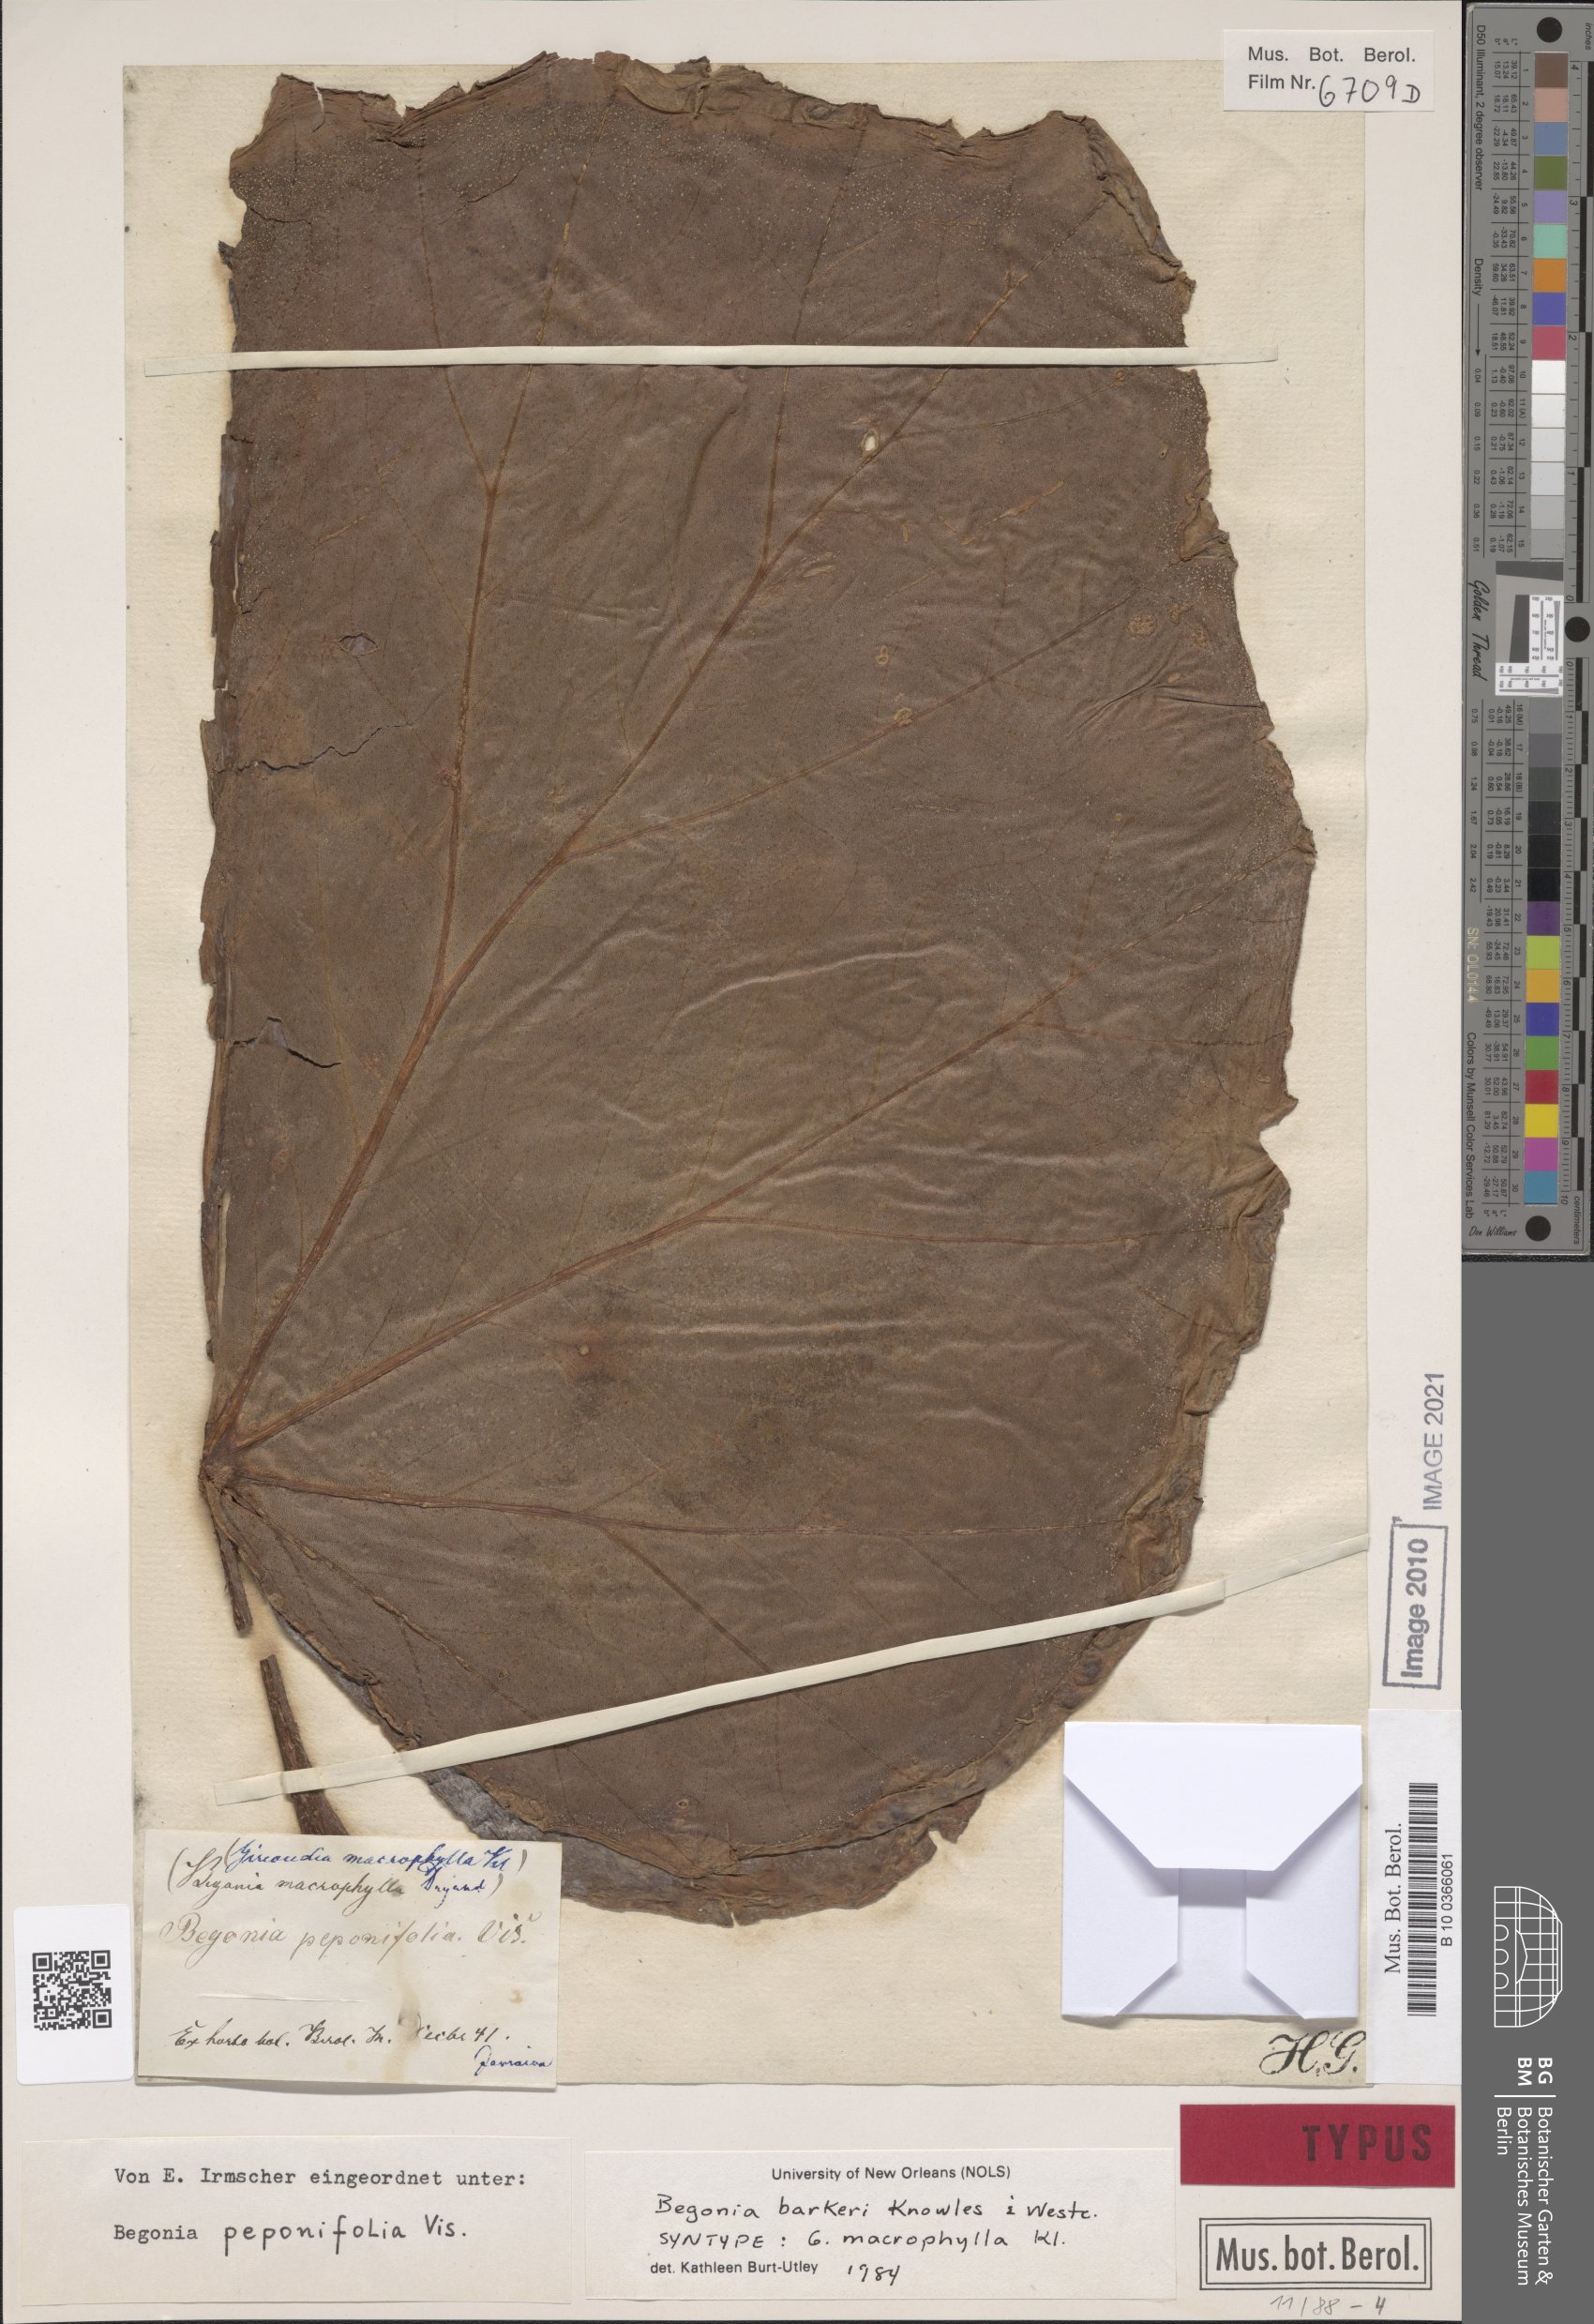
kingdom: Plantae
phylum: Tracheophyta
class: Magnoliopsida
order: Cucurbitales
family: Begoniaceae
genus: Begonia
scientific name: Begonia barkeri
